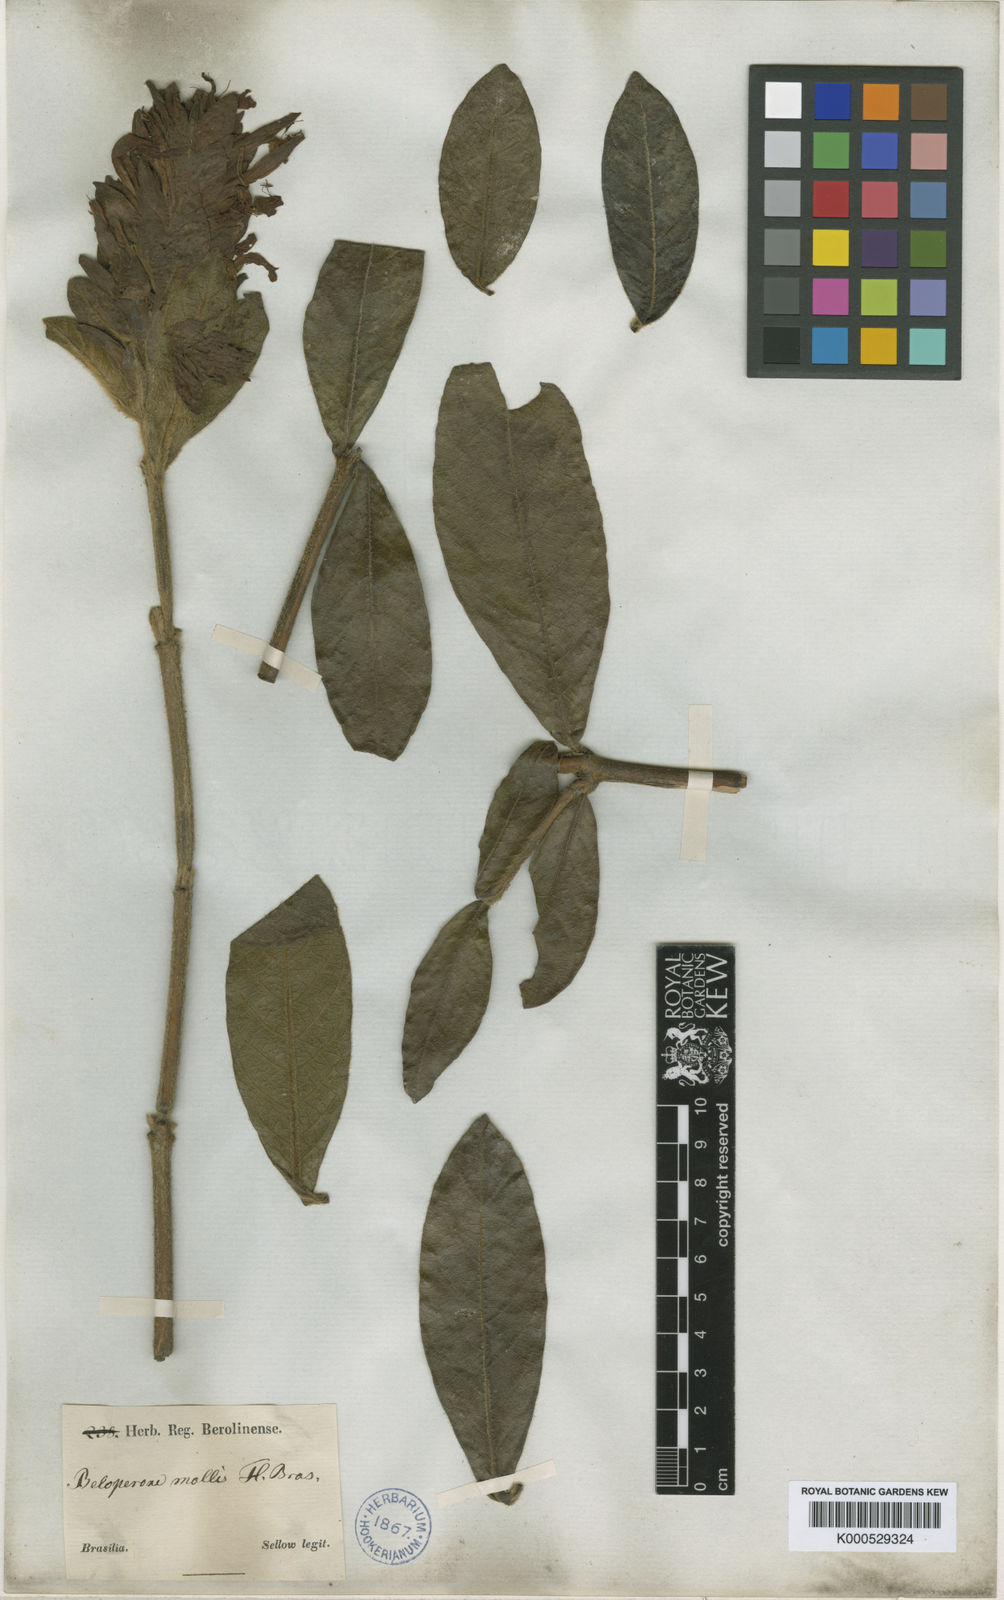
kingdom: Plantae
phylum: Tracheophyta
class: Magnoliopsida
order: Lamiales
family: Acanthaceae
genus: Justicia
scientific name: Justicia riparia
